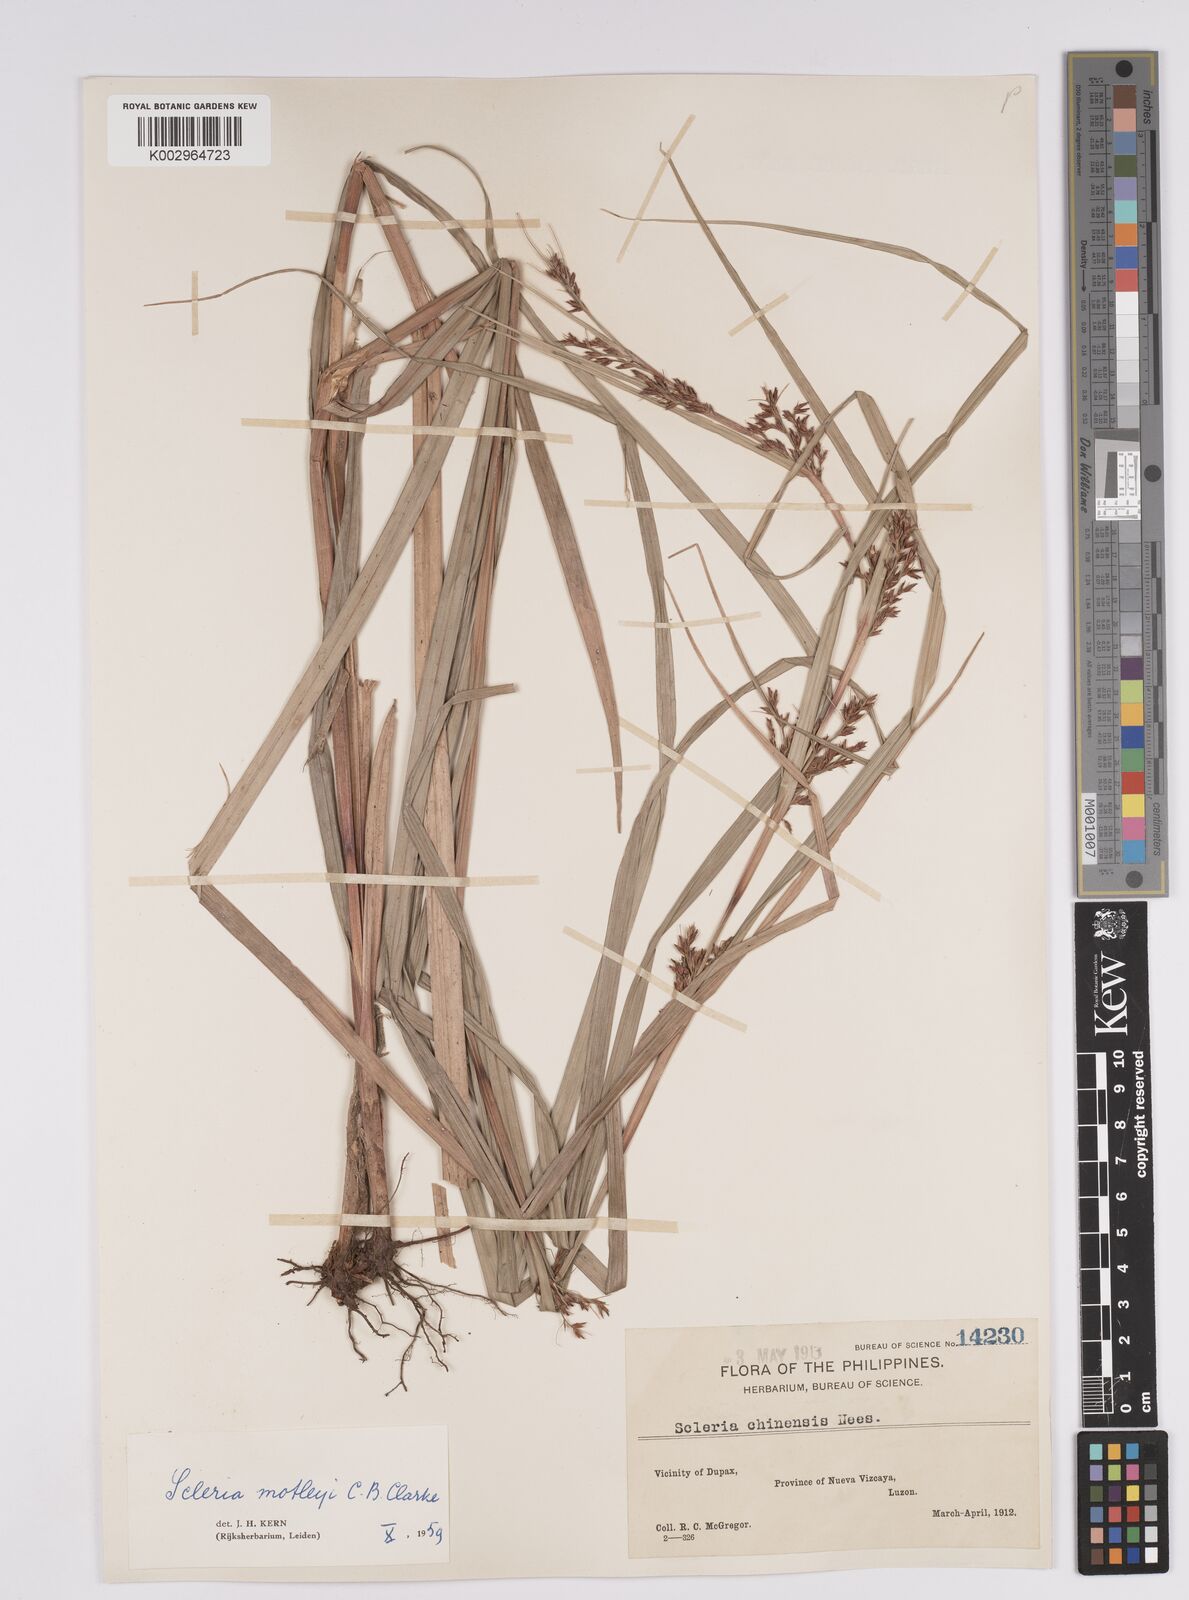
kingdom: Plantae
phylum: Tracheophyta
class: Liliopsida
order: Poales
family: Cyperaceae
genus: Scleria
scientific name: Scleria motleyi
